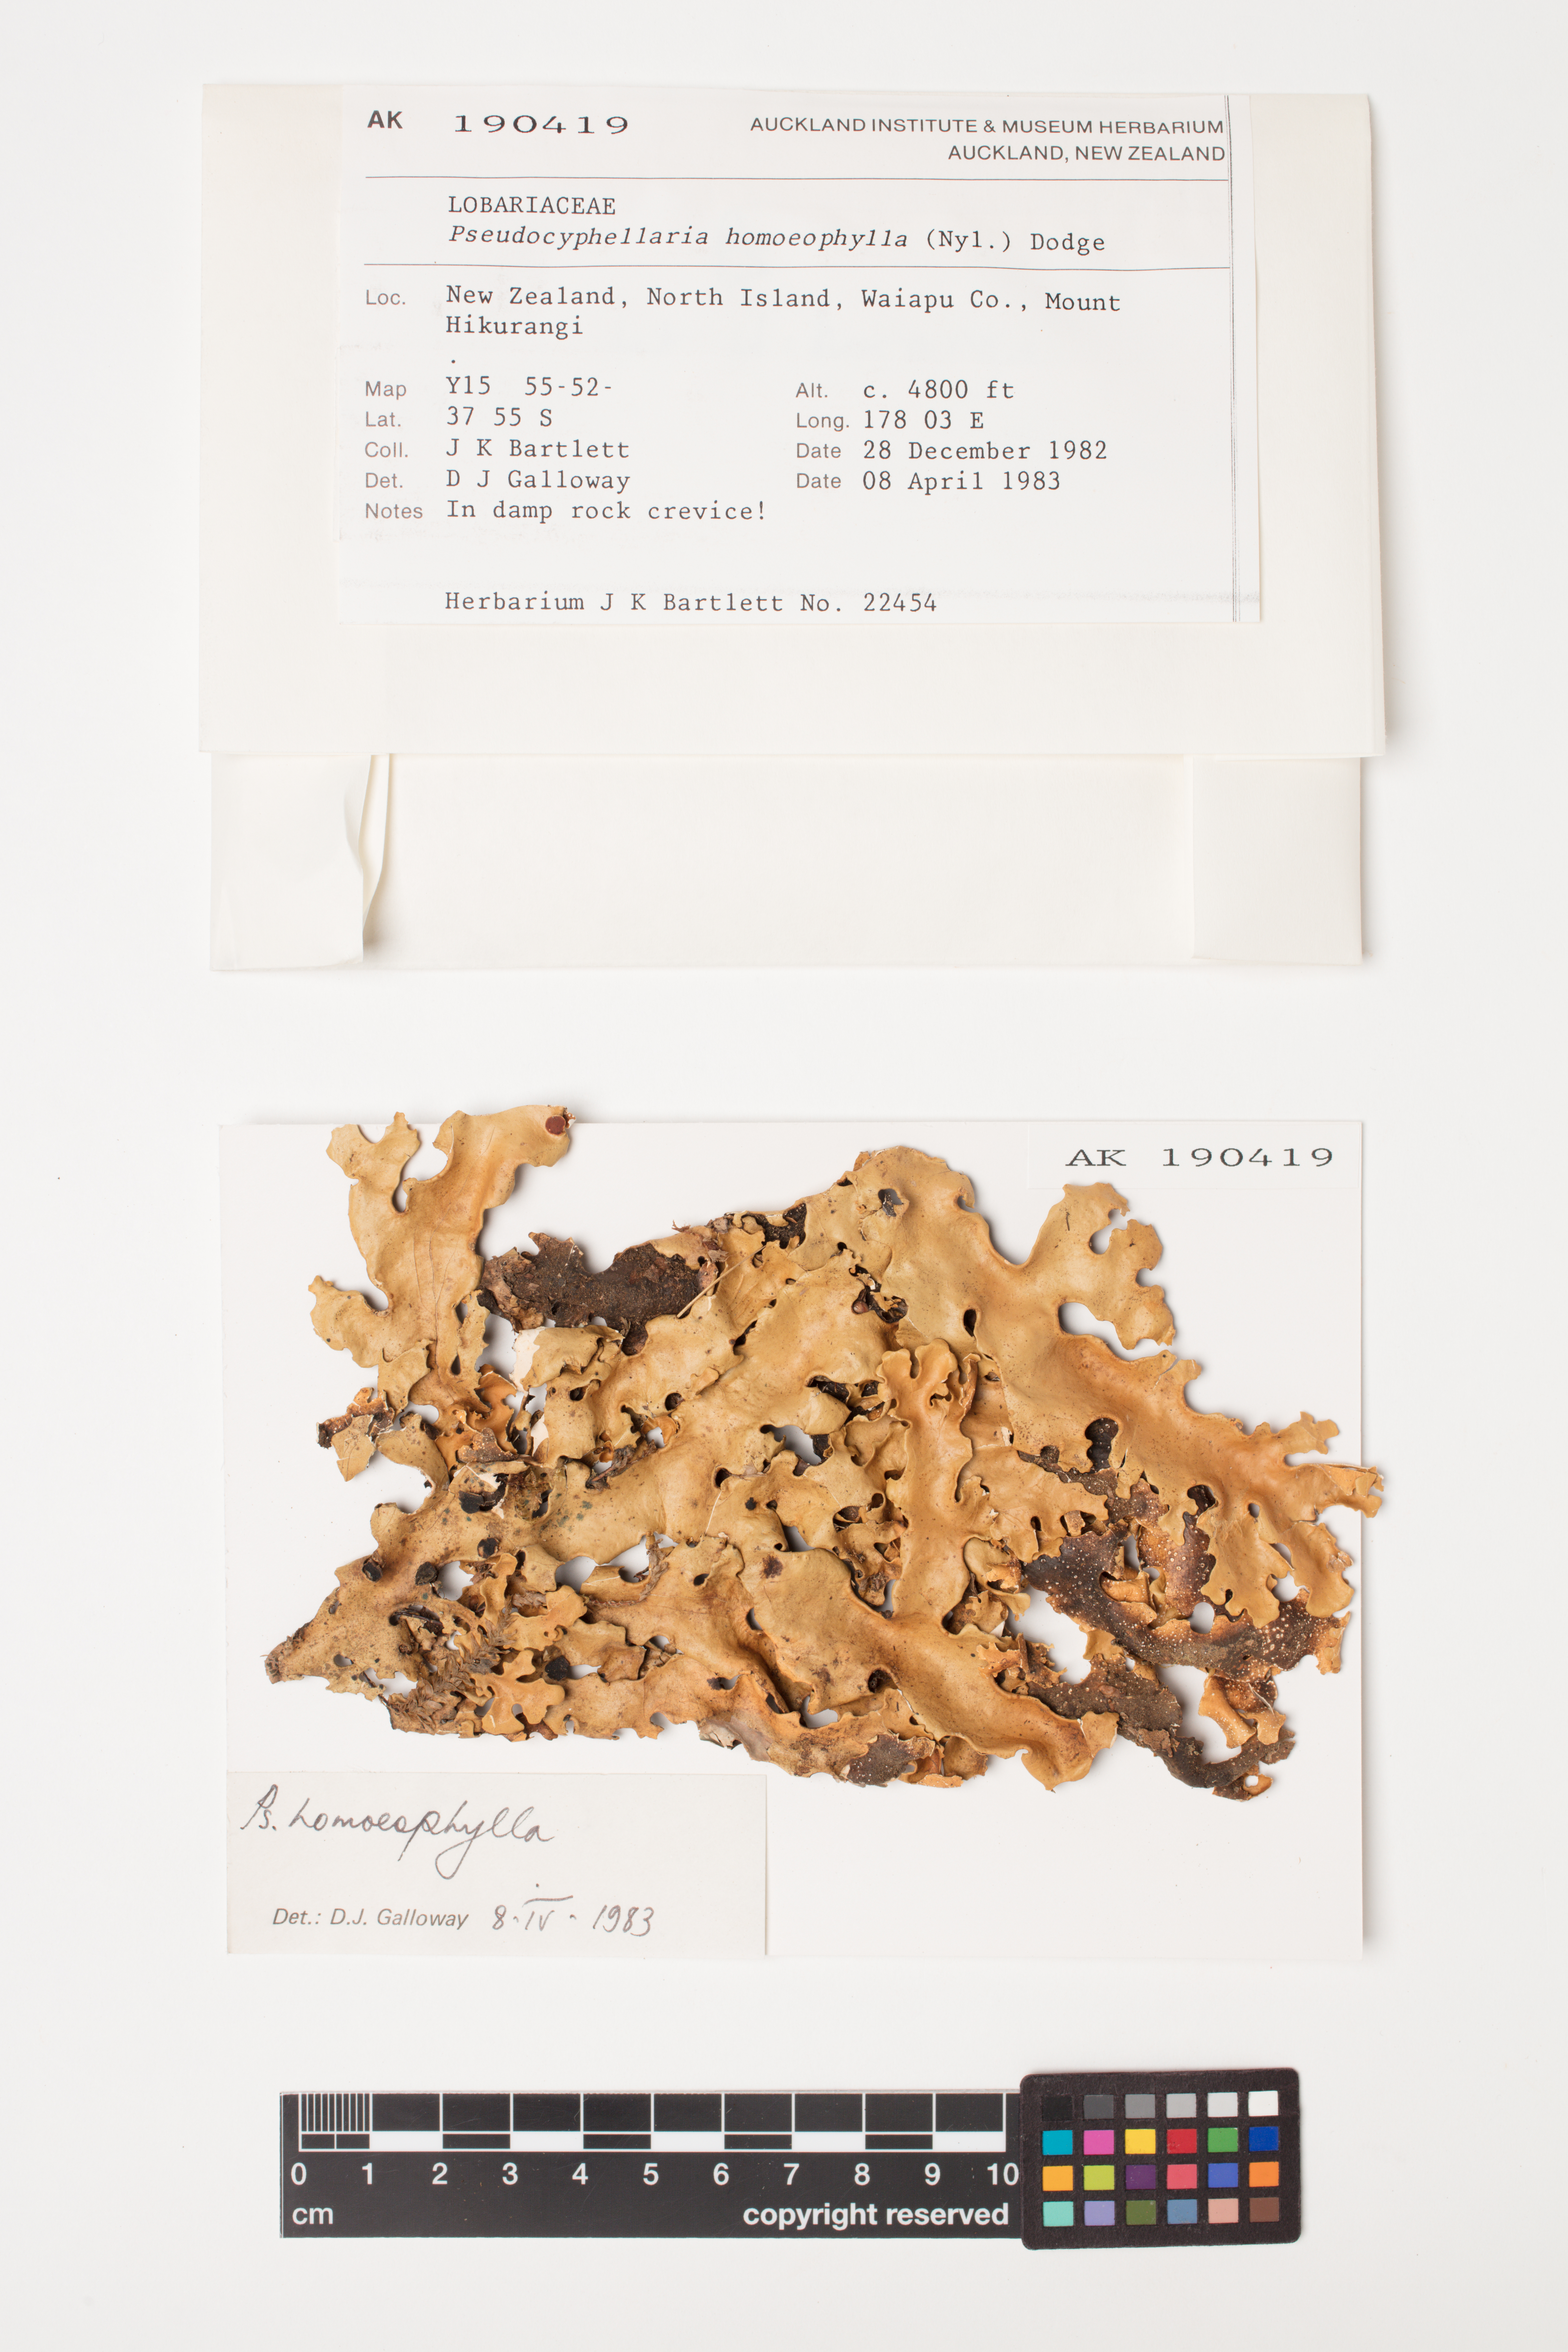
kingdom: Fungi
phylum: Ascomycota
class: Lecanoromycetes
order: Peltigerales
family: Lobariaceae
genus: Pseudocyphellaria
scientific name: Pseudocyphellaria homeophylla
